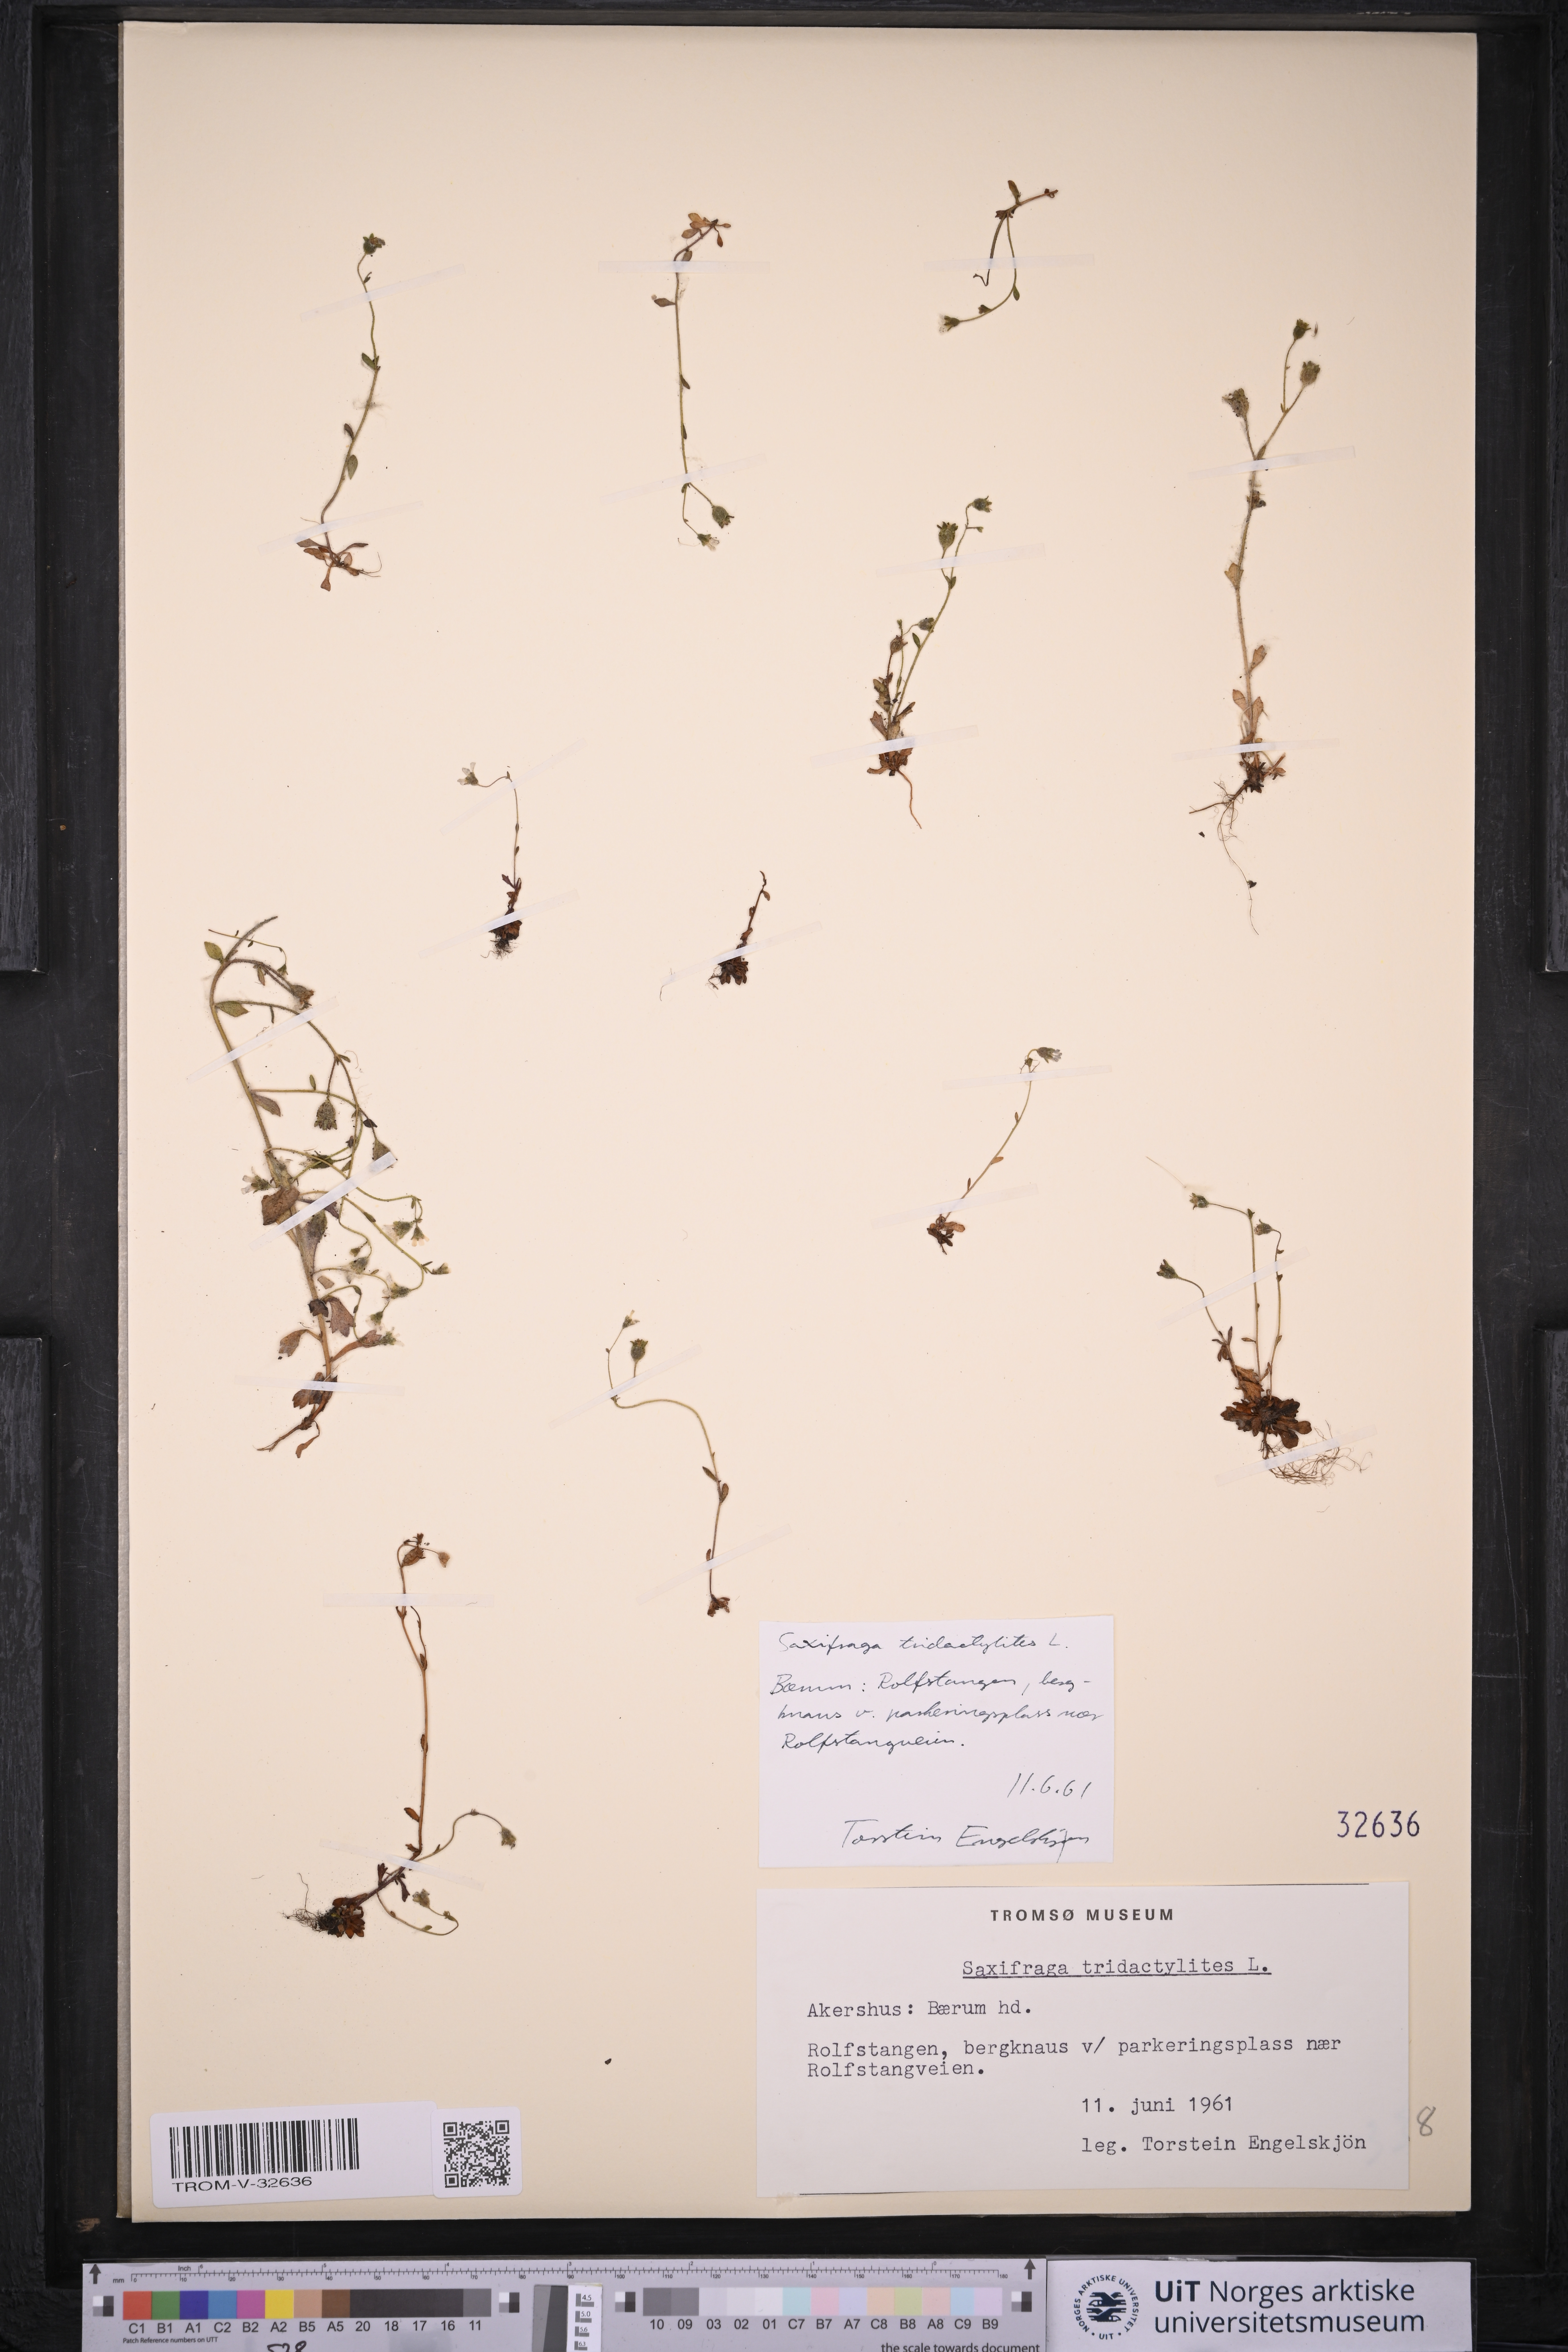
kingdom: Plantae
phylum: Tracheophyta
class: Magnoliopsida
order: Saxifragales
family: Saxifragaceae
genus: Saxifraga
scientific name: Saxifraga tridactylites
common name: Rue-leaved saxifrage
